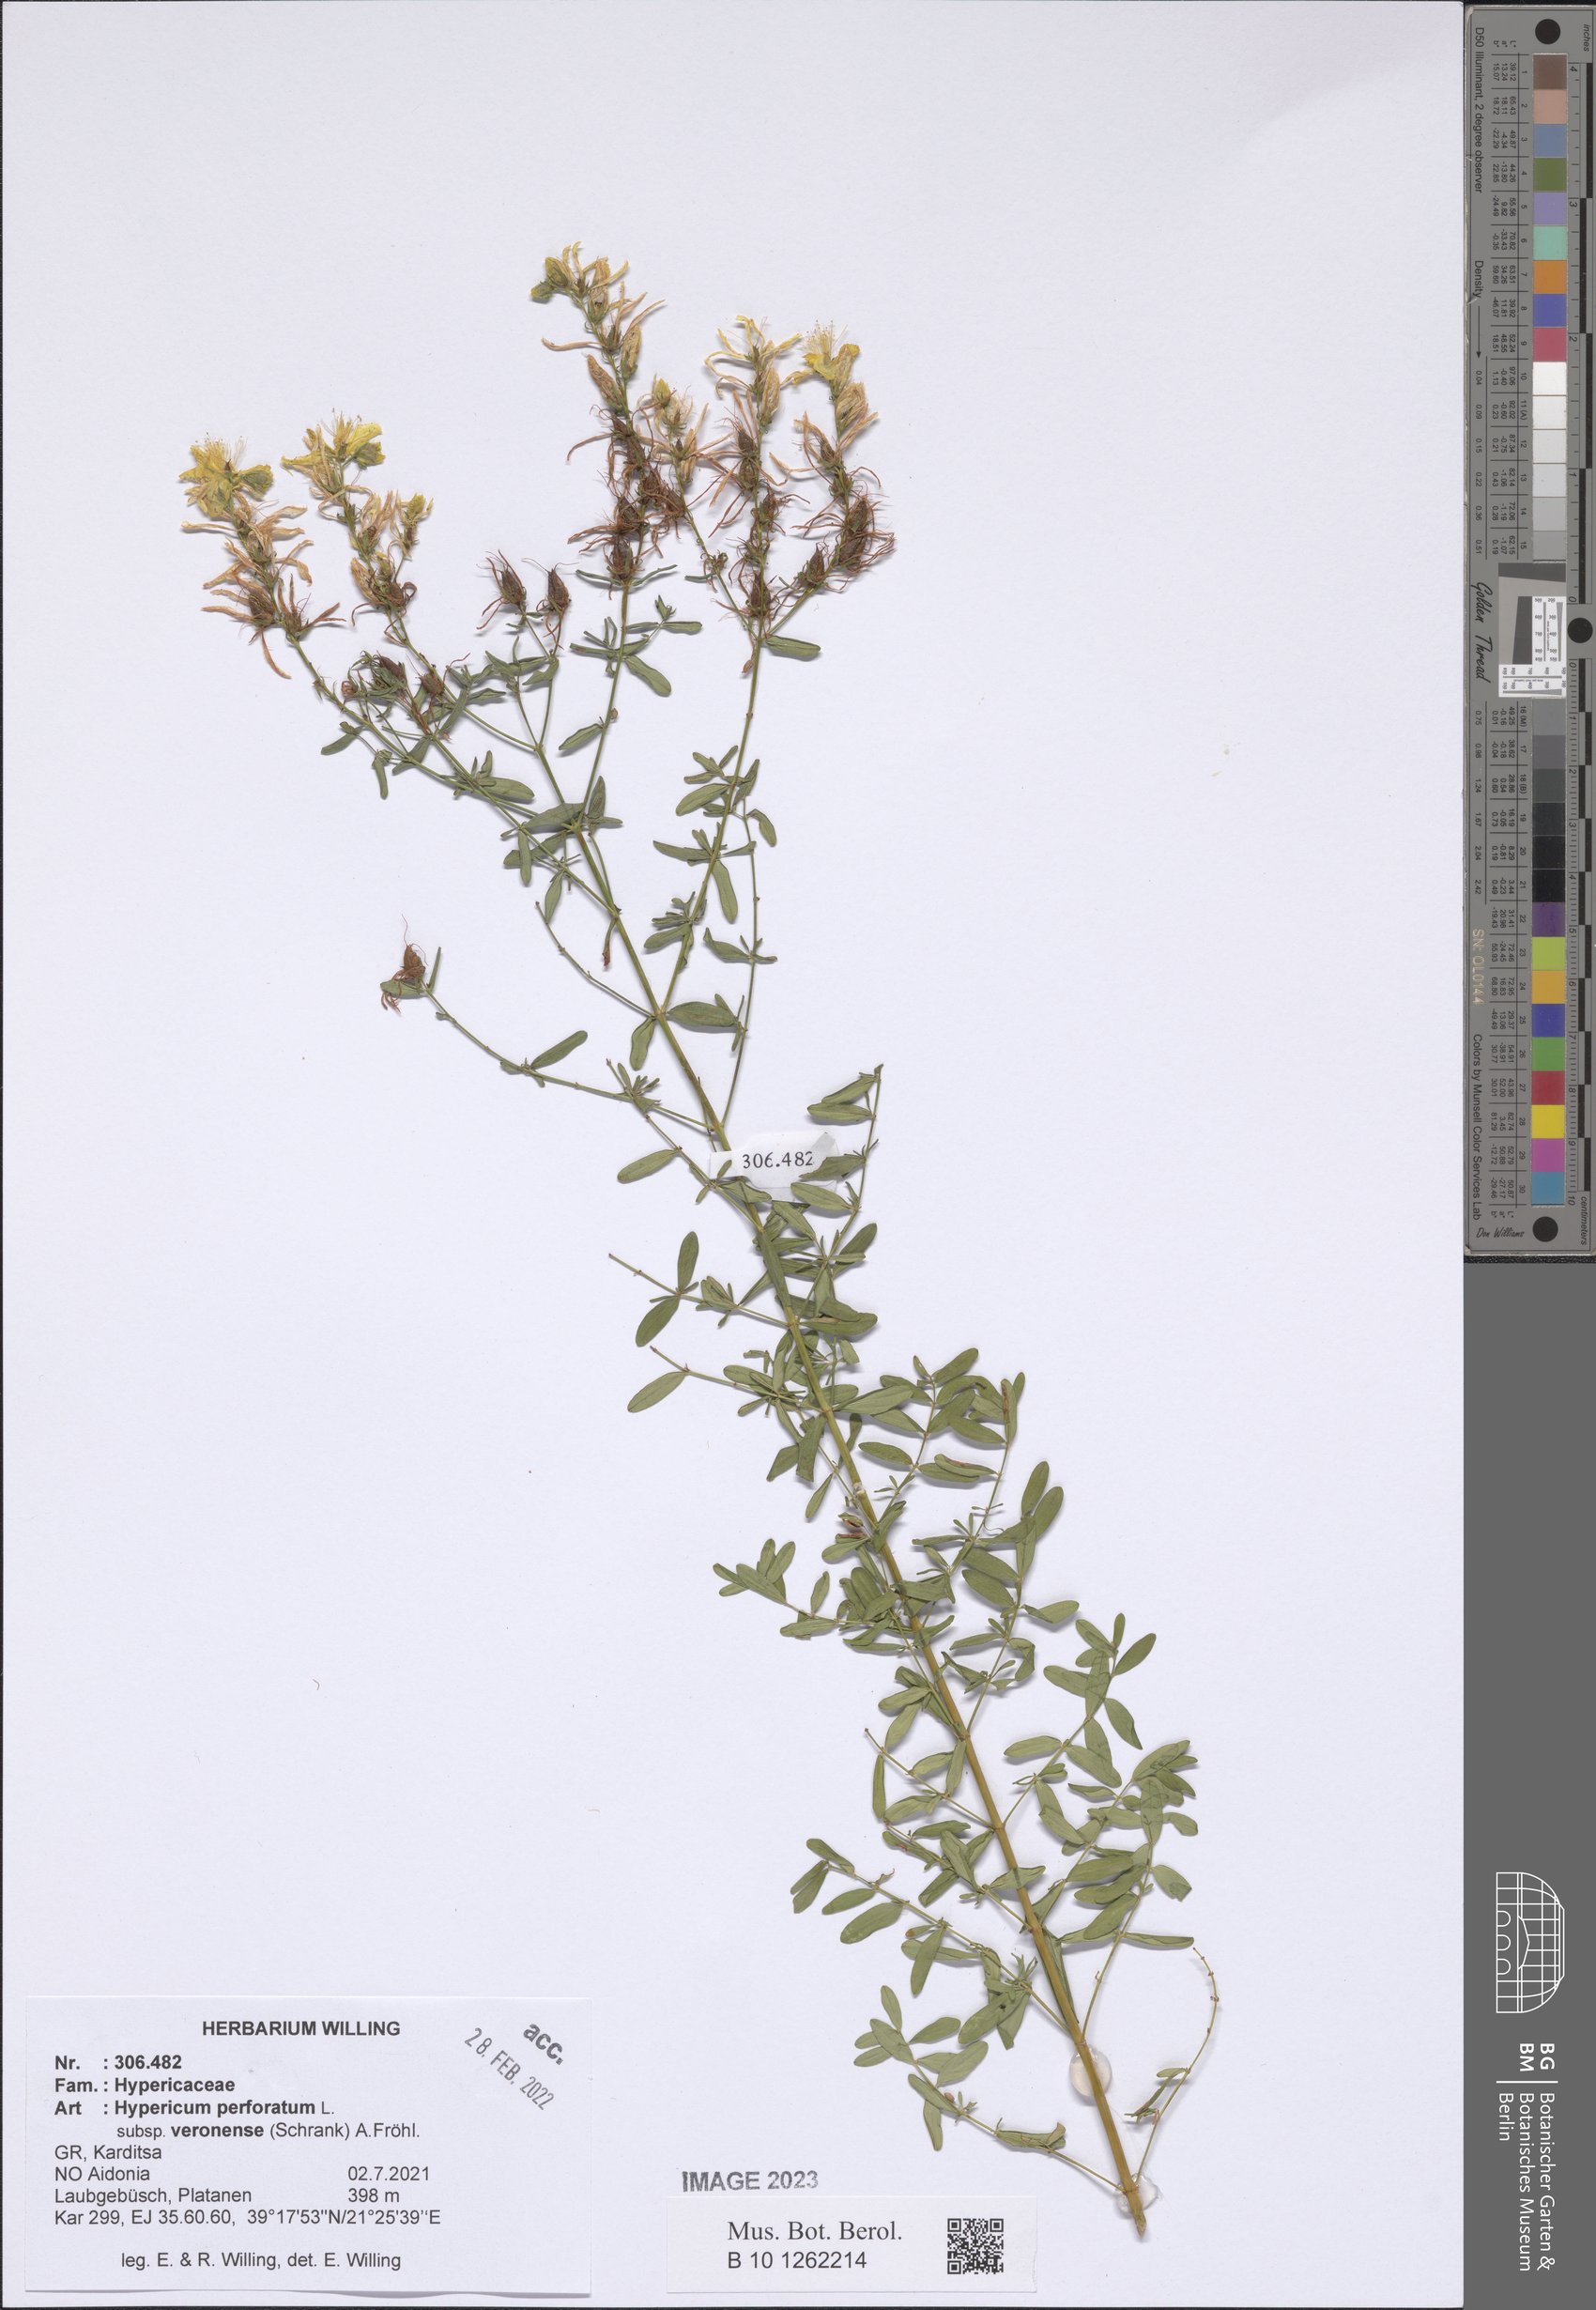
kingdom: Plantae
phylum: Tracheophyta
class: Magnoliopsida
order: Malpighiales
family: Hypericaceae
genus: Hypericum
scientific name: Hypericum veronense
